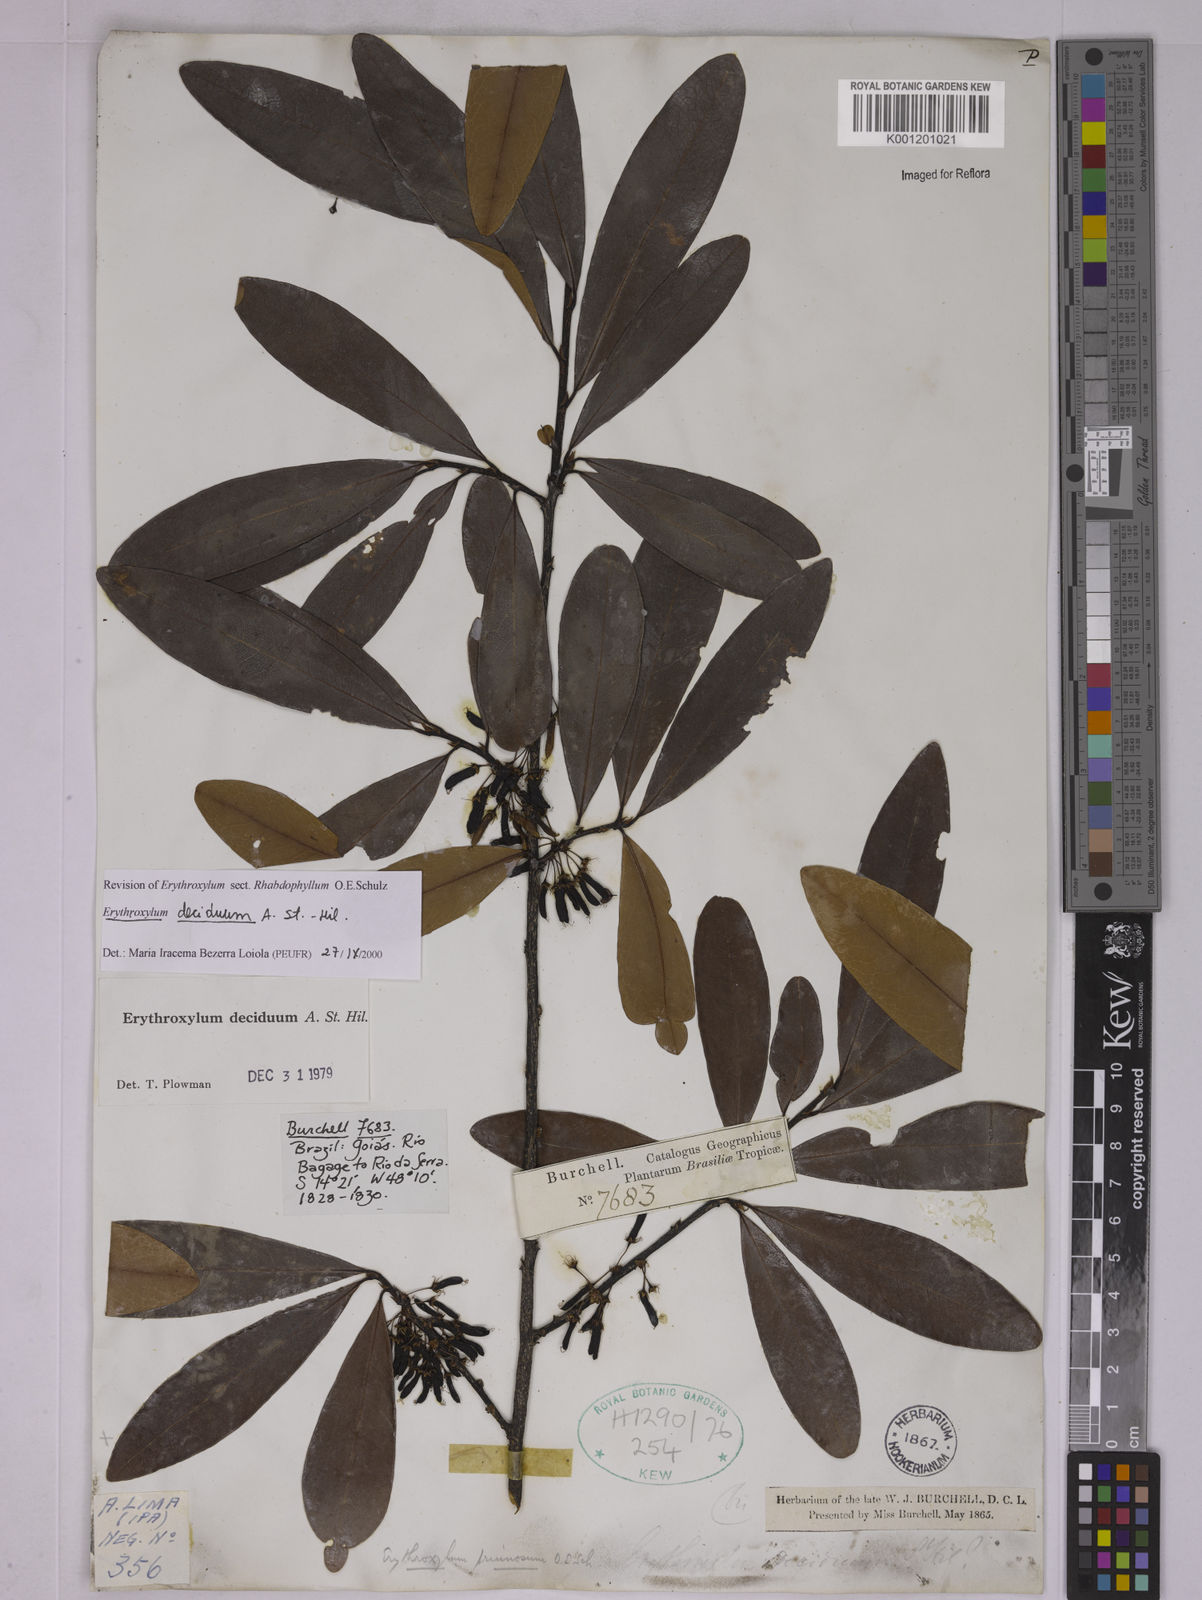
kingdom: Plantae
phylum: Tracheophyta
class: Magnoliopsida
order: Malpighiales
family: Erythroxylaceae
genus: Erythroxylum
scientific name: Erythroxylum deciduum
